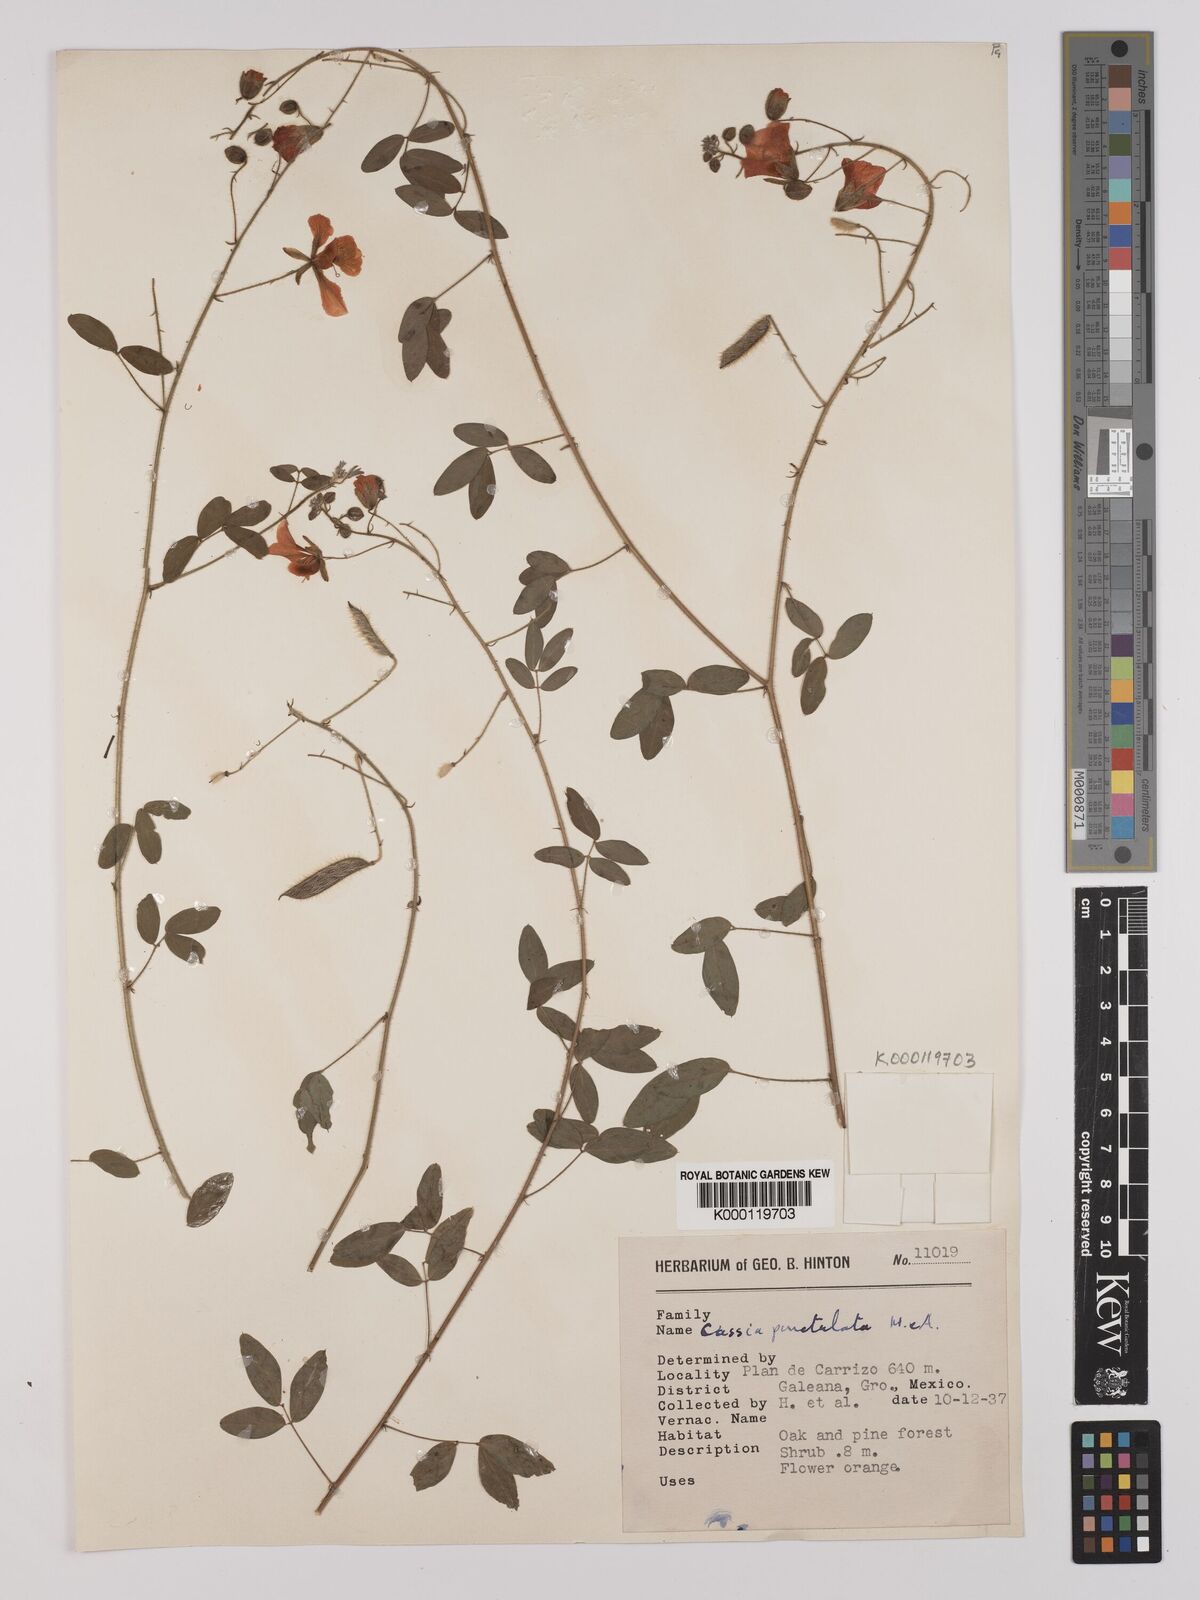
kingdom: Plantae
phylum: Tracheophyta
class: Magnoliopsida
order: Fabales
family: Fabaceae
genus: Chamaecrista
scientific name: Chamaecrista hispidula
